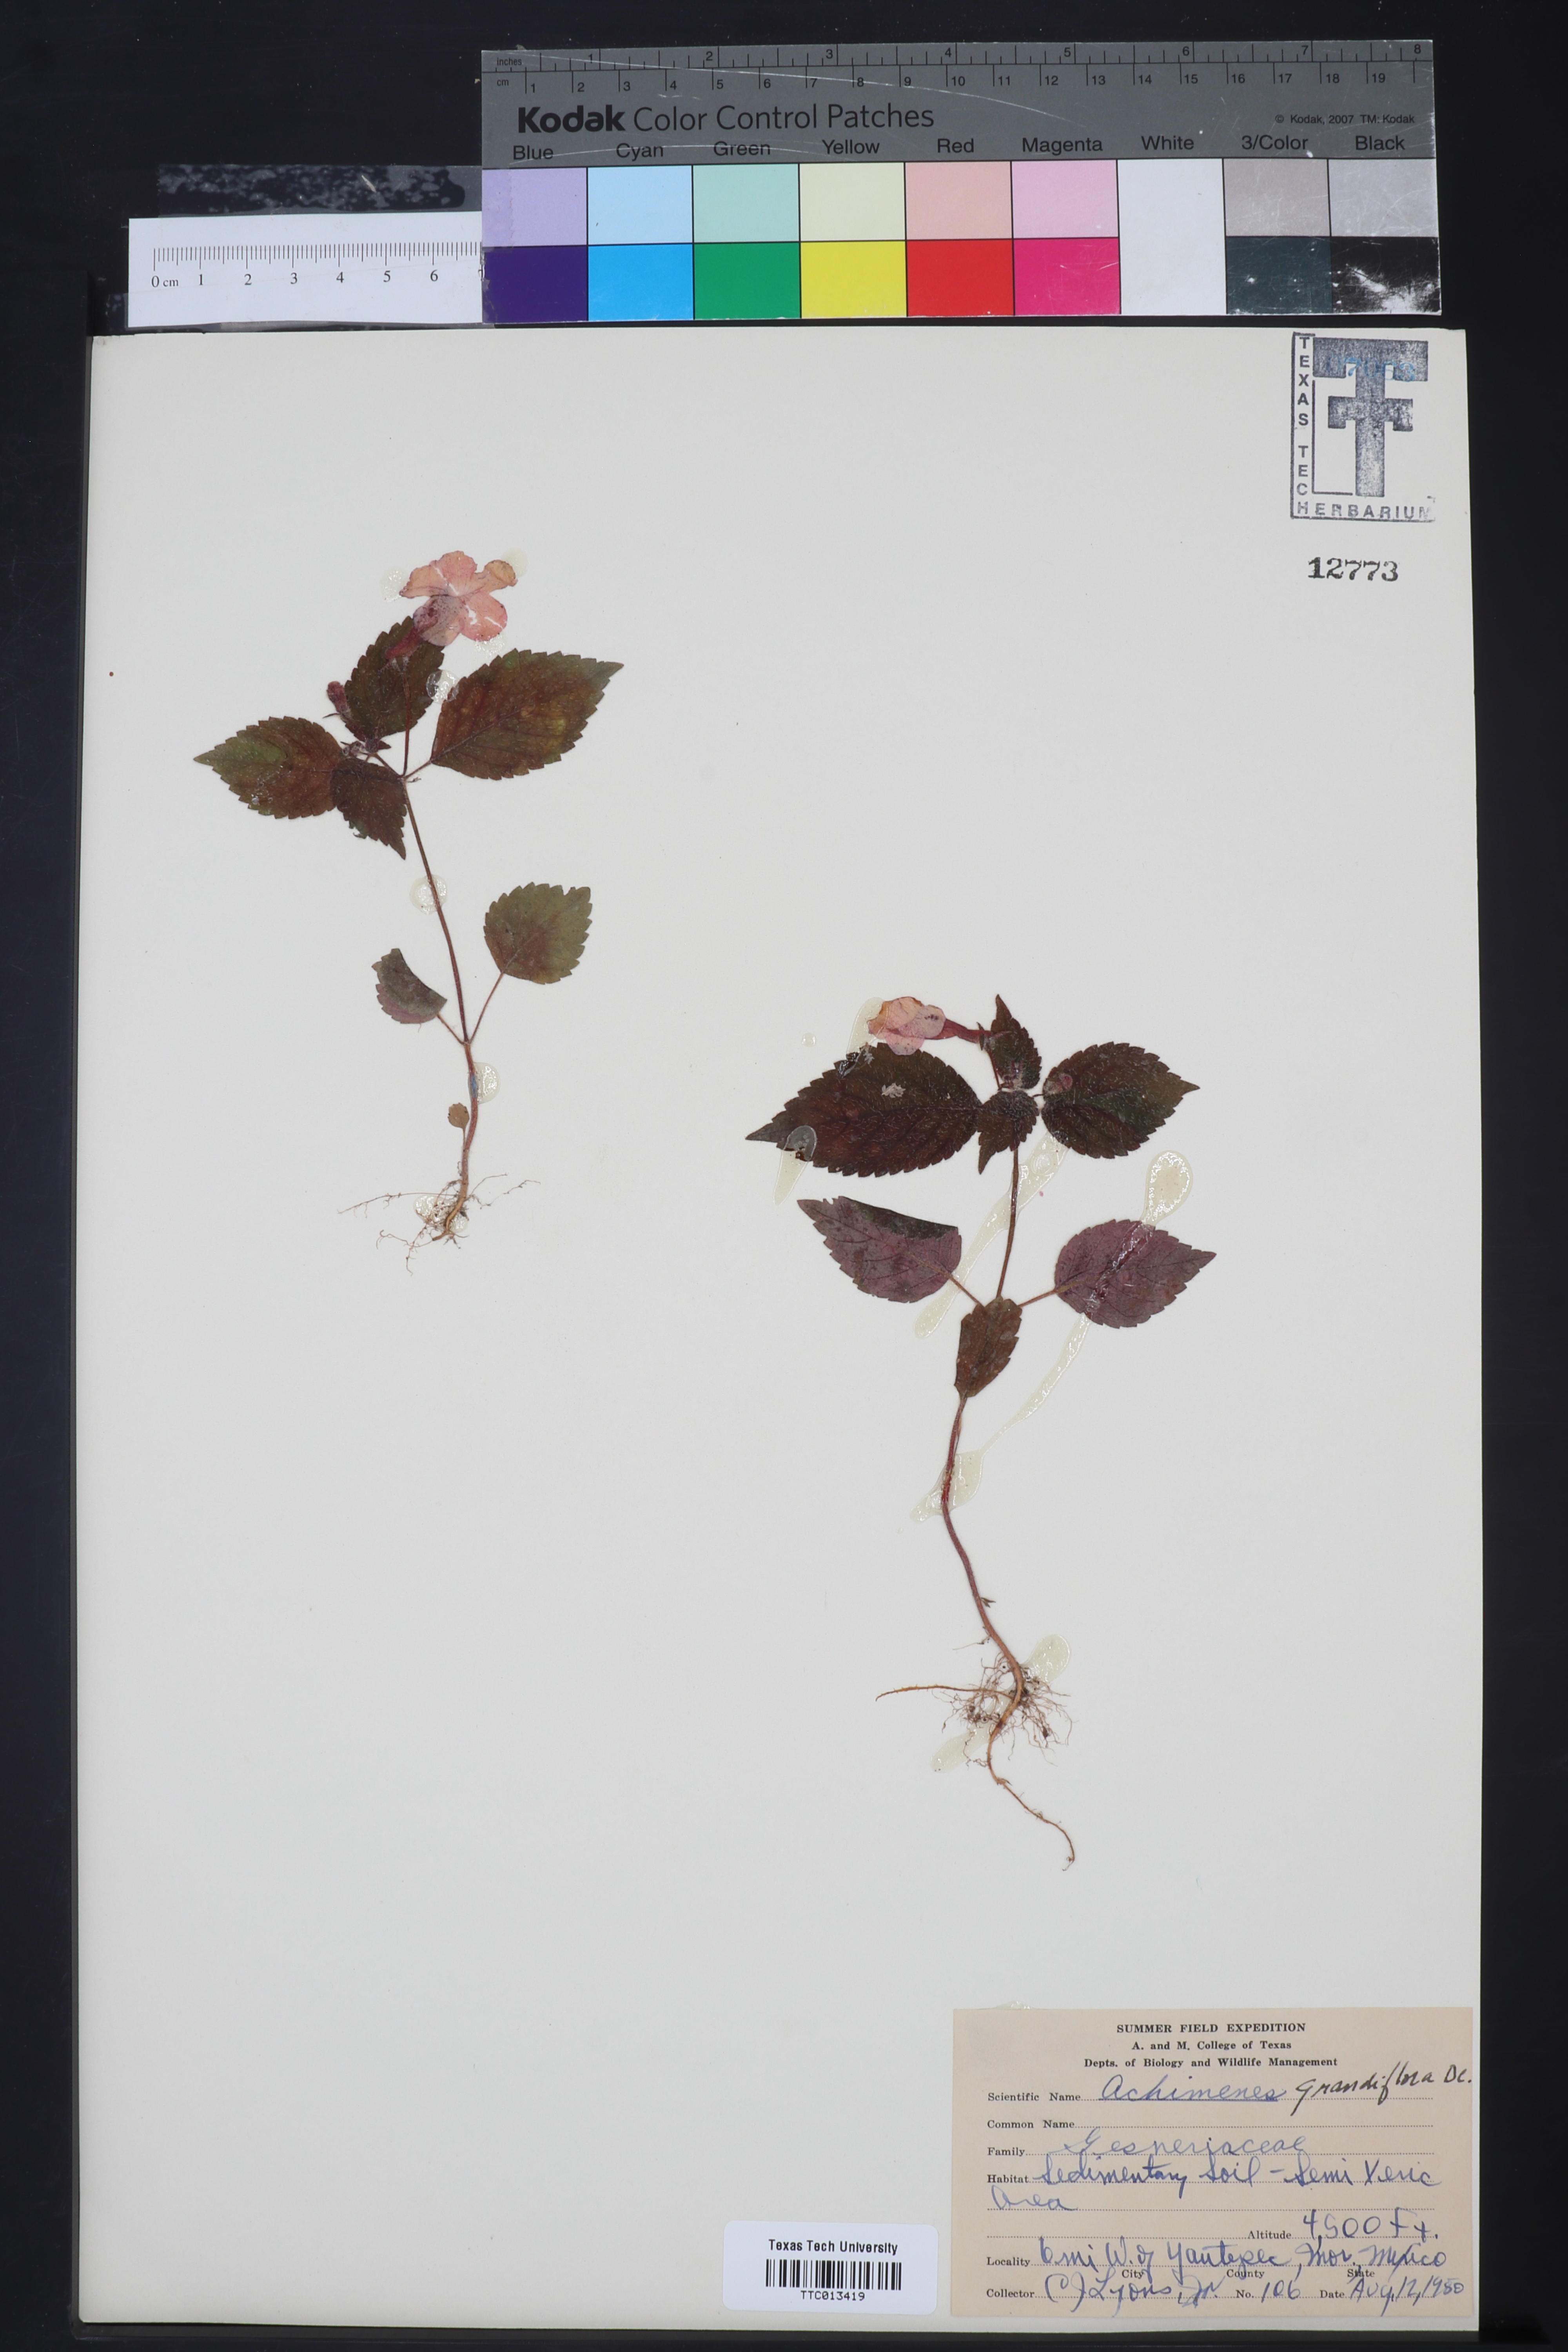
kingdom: Plantae
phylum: Tracheophyta
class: Magnoliopsida
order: Lamiales
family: Gesneriaceae
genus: Achimenes
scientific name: Achimenes grandiflora
